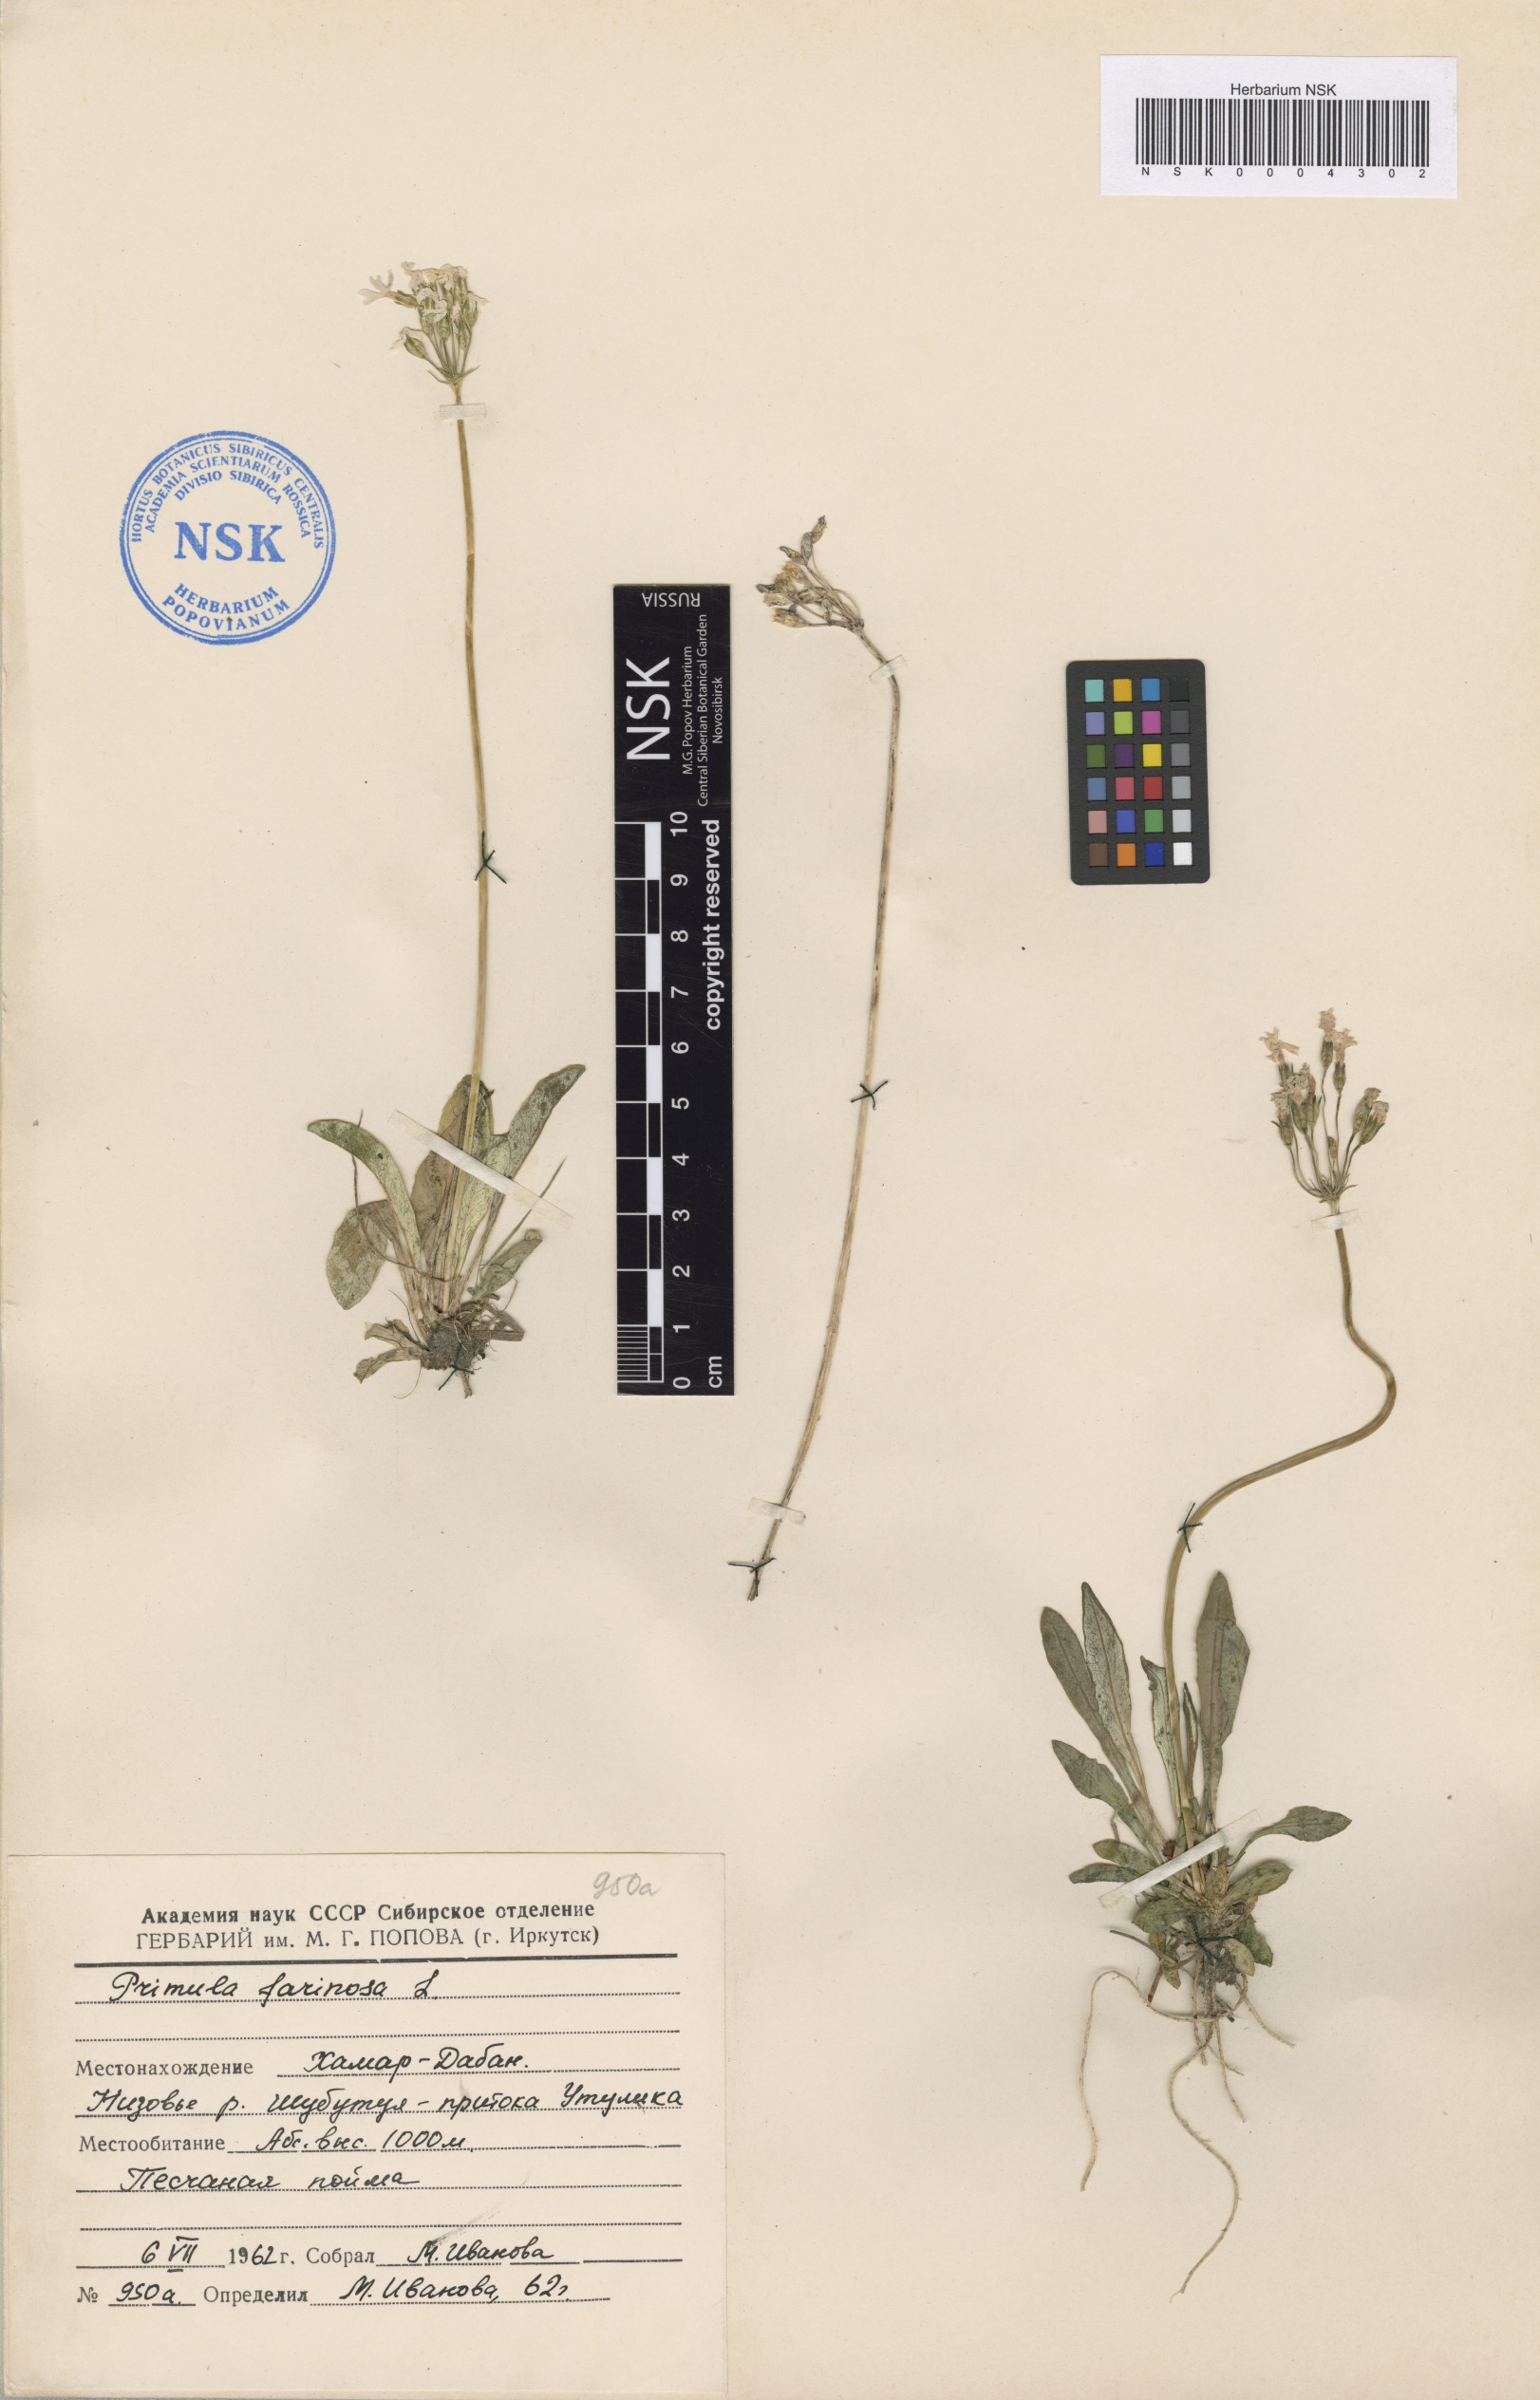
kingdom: Plantae
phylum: Tracheophyta
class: Magnoliopsida
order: Ericales
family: Primulaceae
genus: Primula
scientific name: Primula farinosa
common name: Bird's-eye primrose
